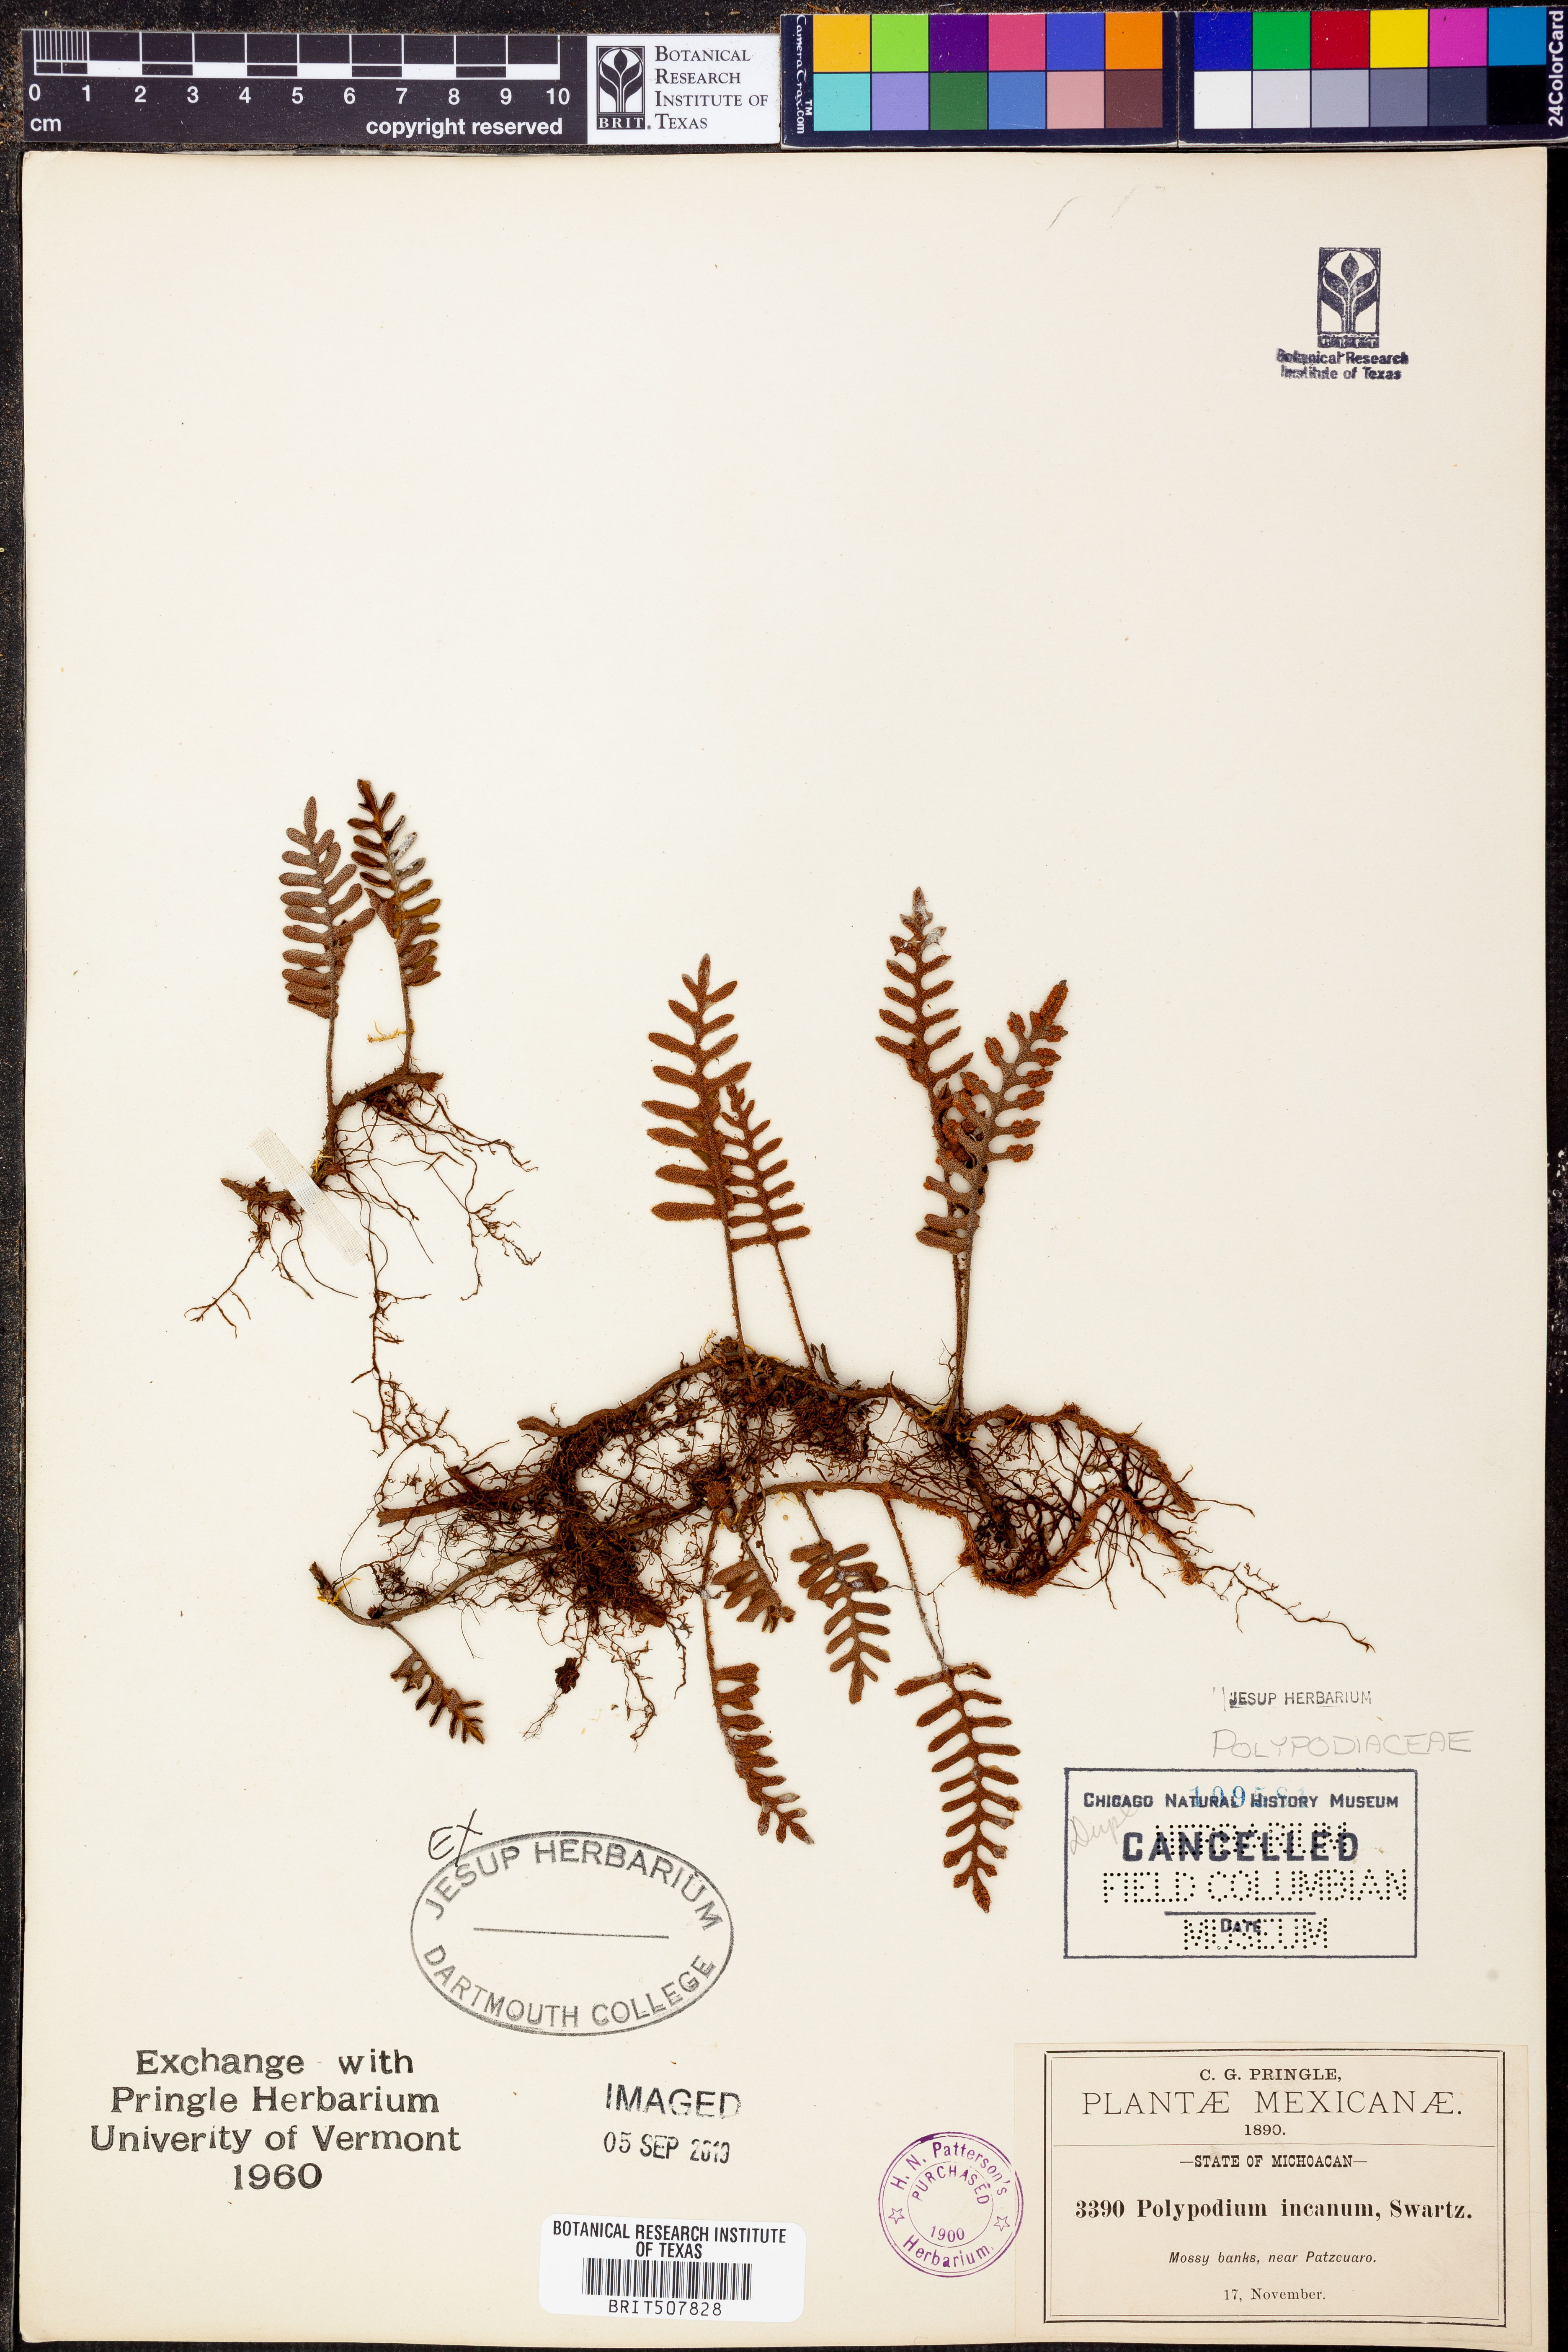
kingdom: Plantae
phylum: Tracheophyta
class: Polypodiopsida
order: Polypodiales
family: Polypodiaceae
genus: Pleopeltis
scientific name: Pleopeltis polypodioides
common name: Resurrection fern
